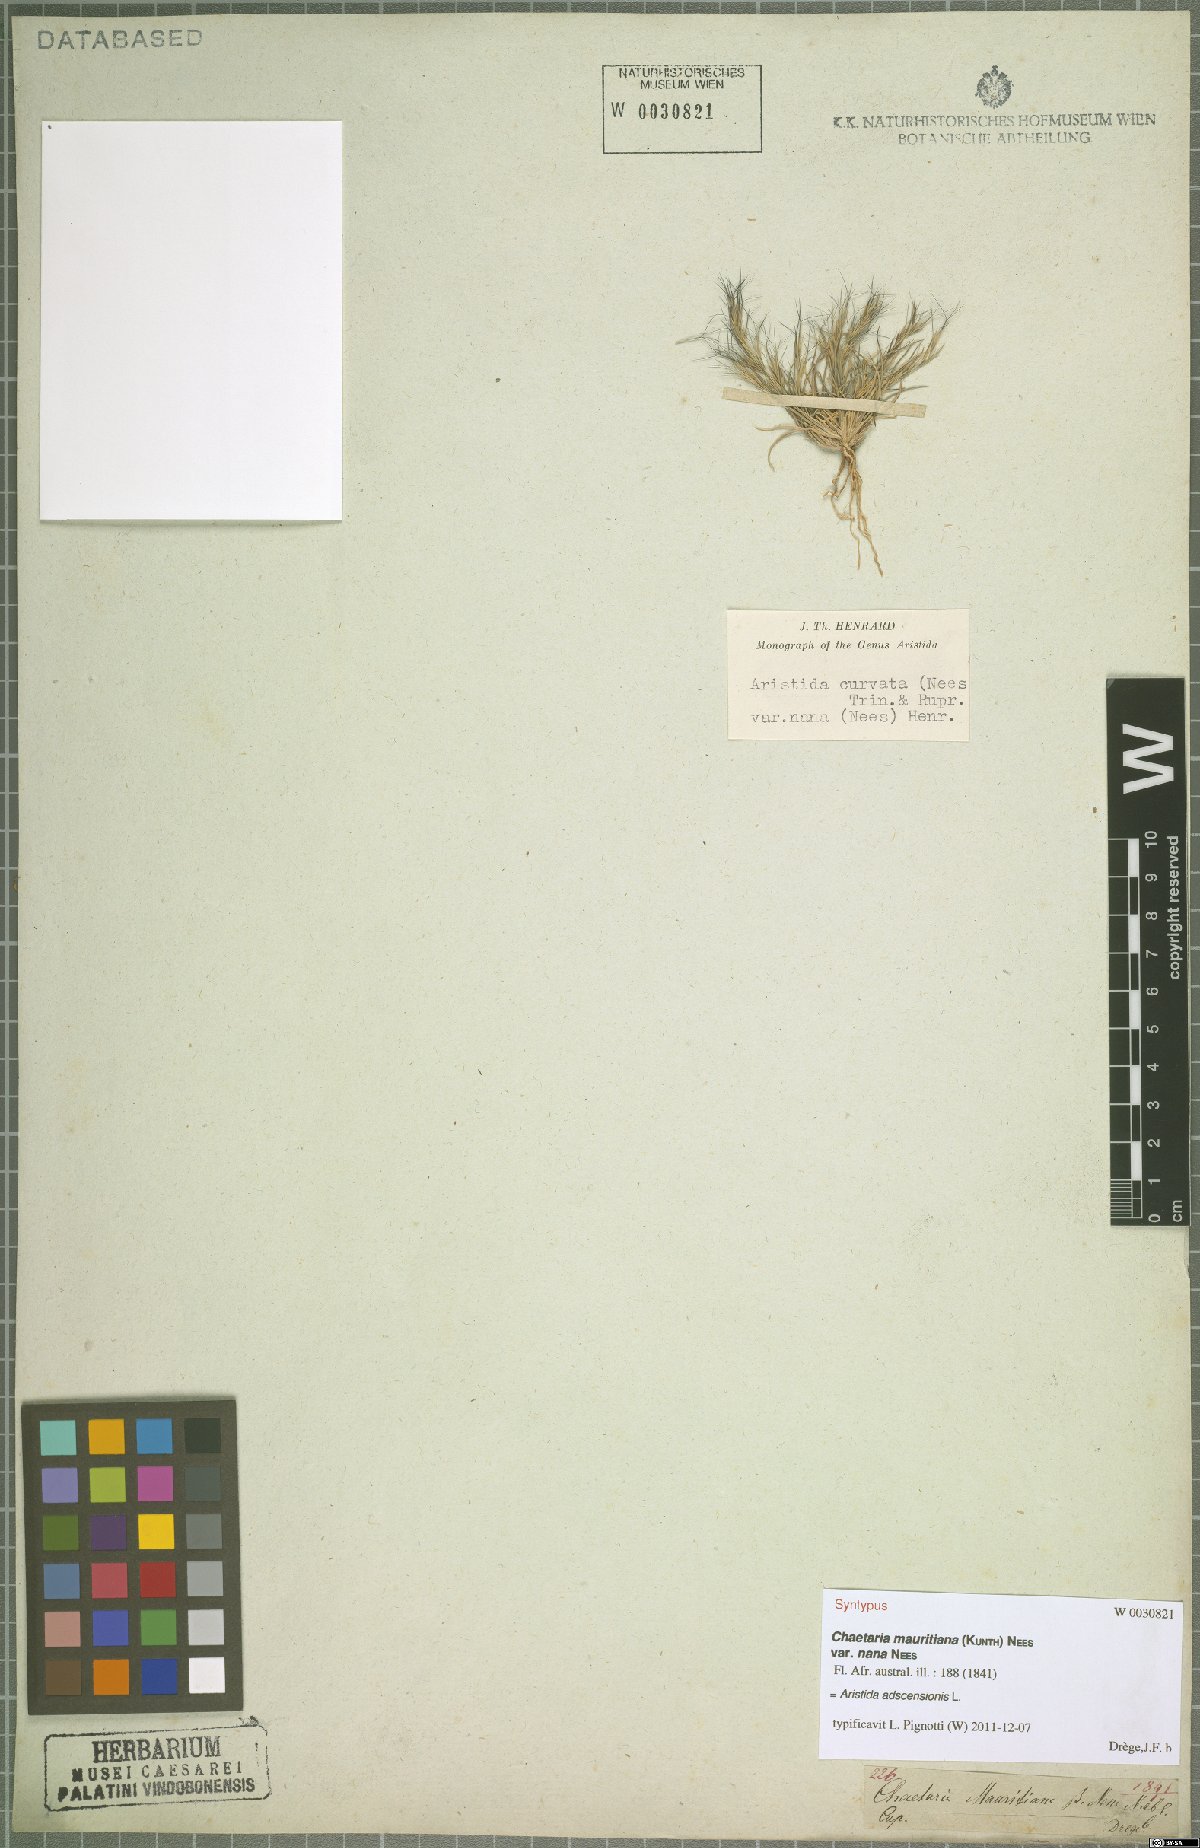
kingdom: Plantae
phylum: Tracheophyta
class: Liliopsida
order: Poales
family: Poaceae
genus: Aristida
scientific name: Aristida adscensionis
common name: Sixweeks threeawn
